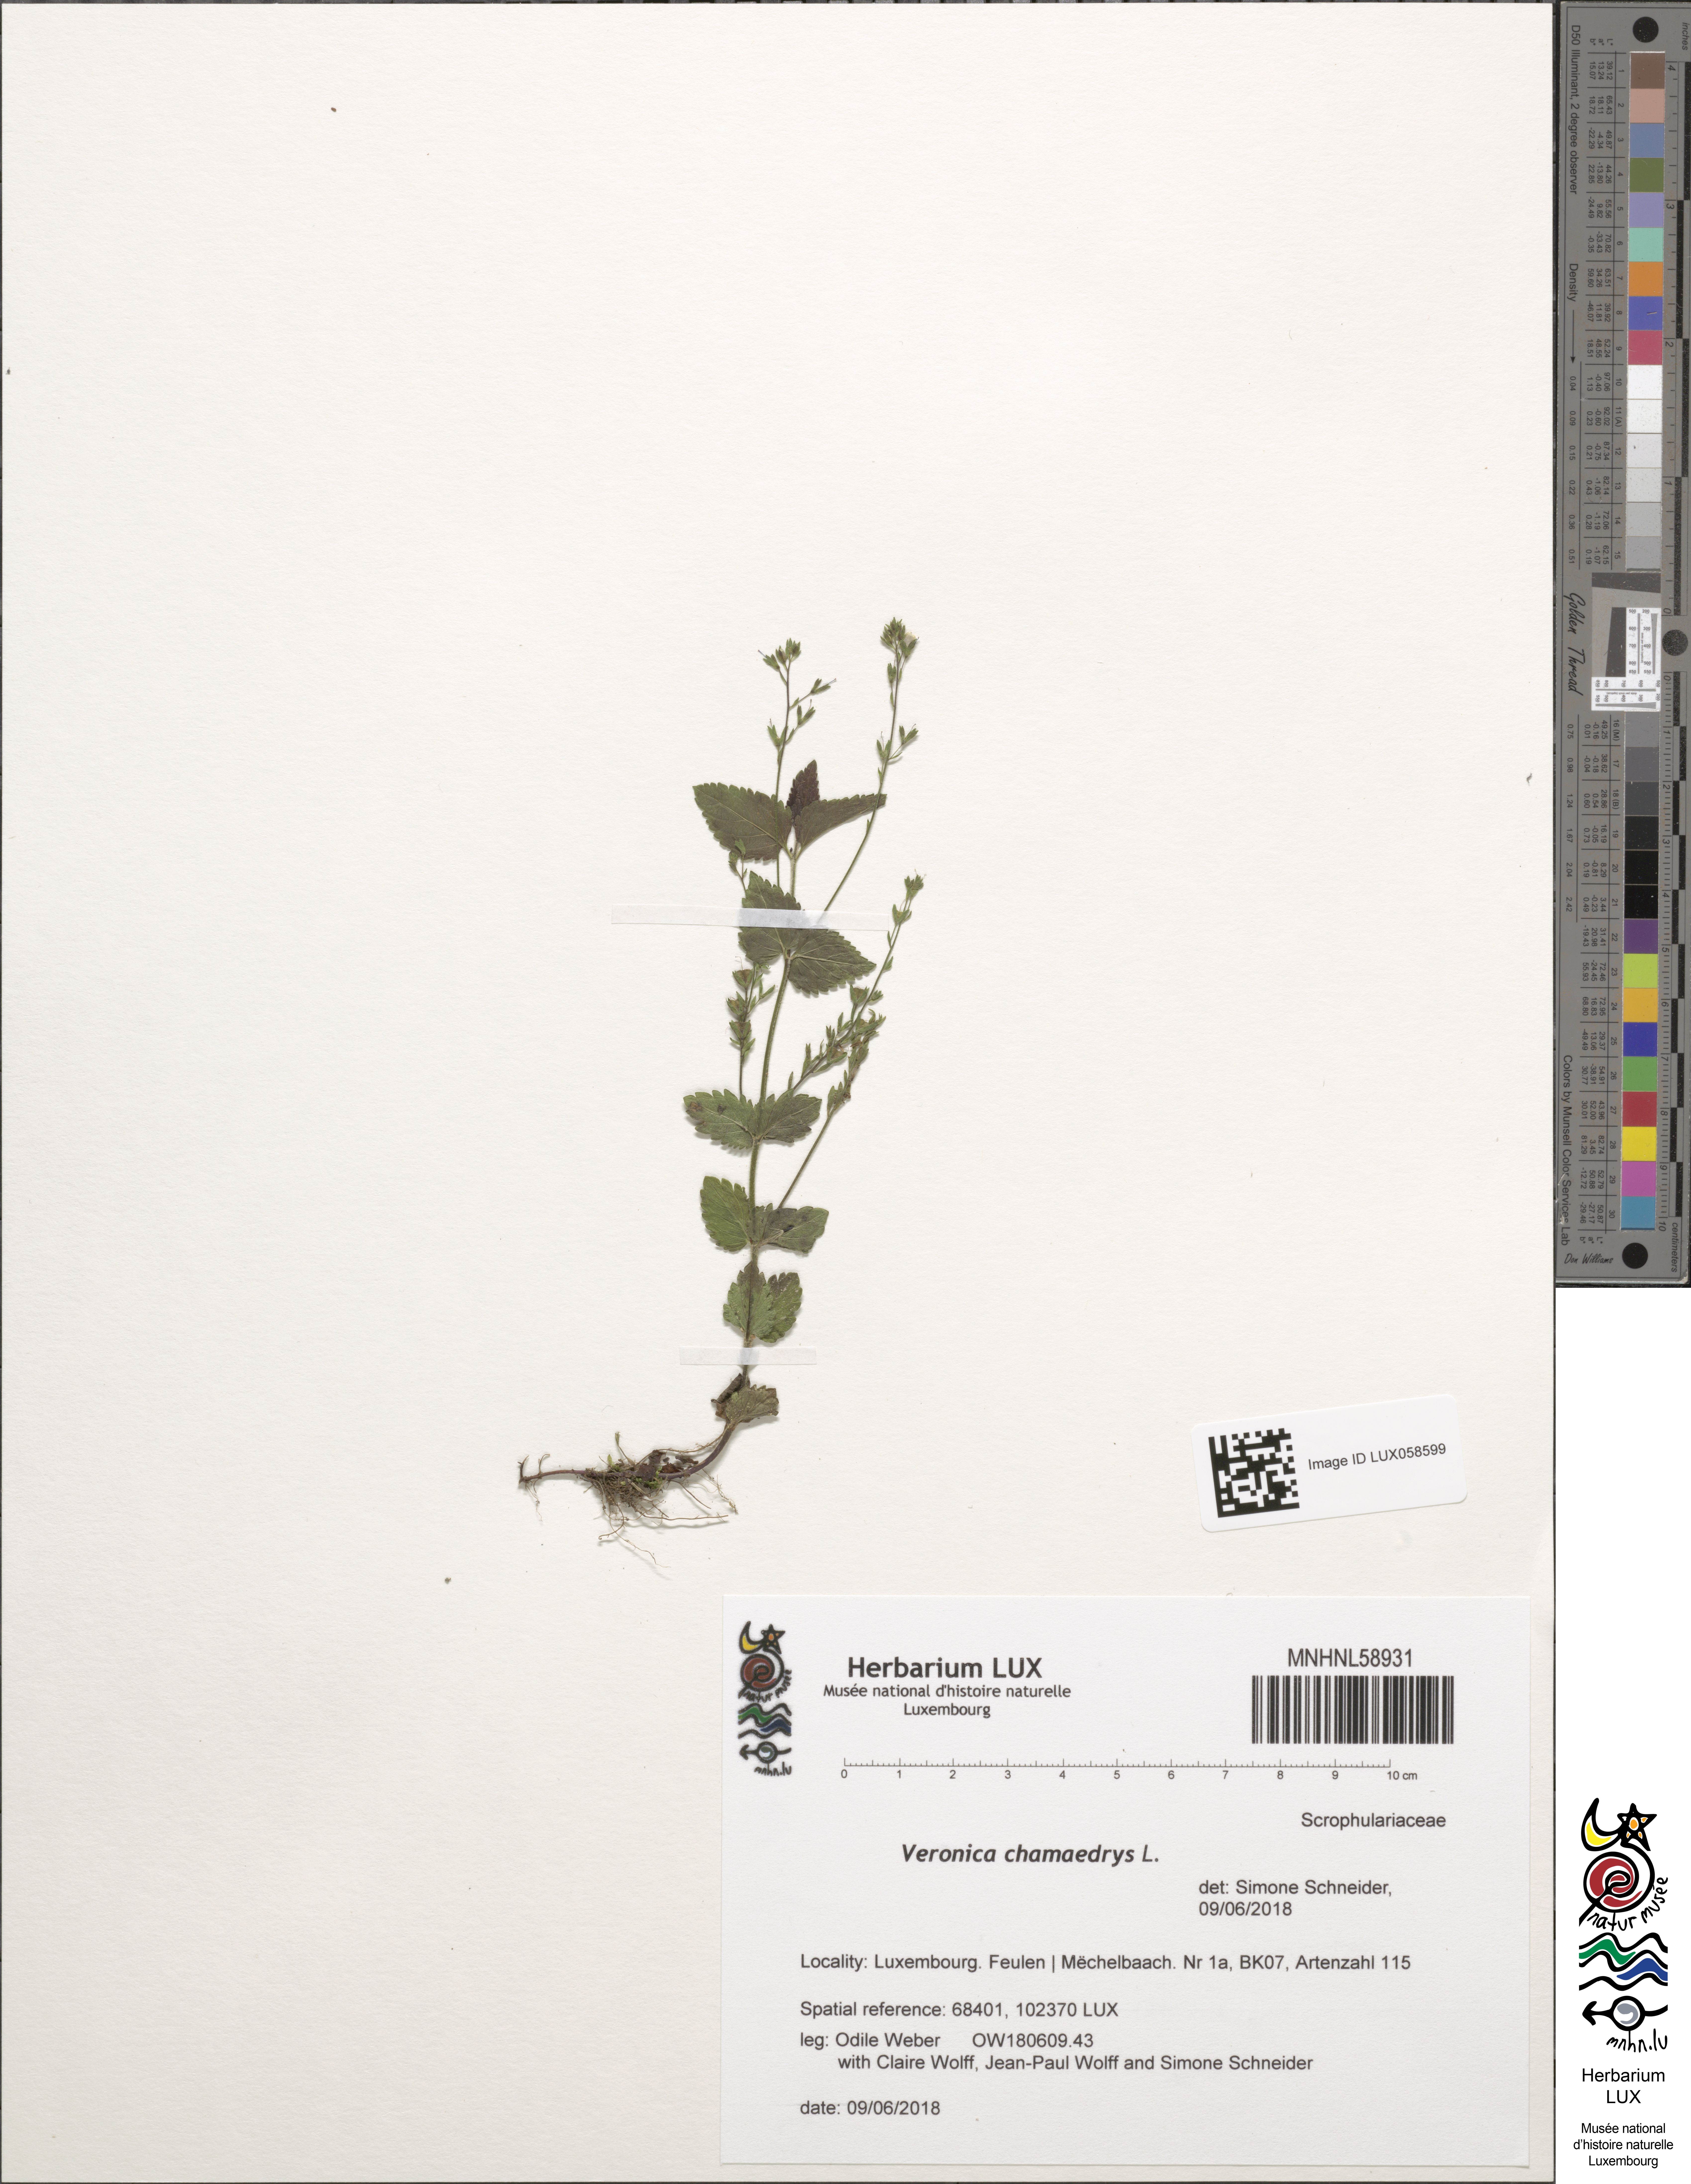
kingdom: Plantae
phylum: Tracheophyta
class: Magnoliopsida
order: Lamiales
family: Plantaginaceae
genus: Veronica
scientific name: Veronica chamaedrys
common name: Germander speedwell
